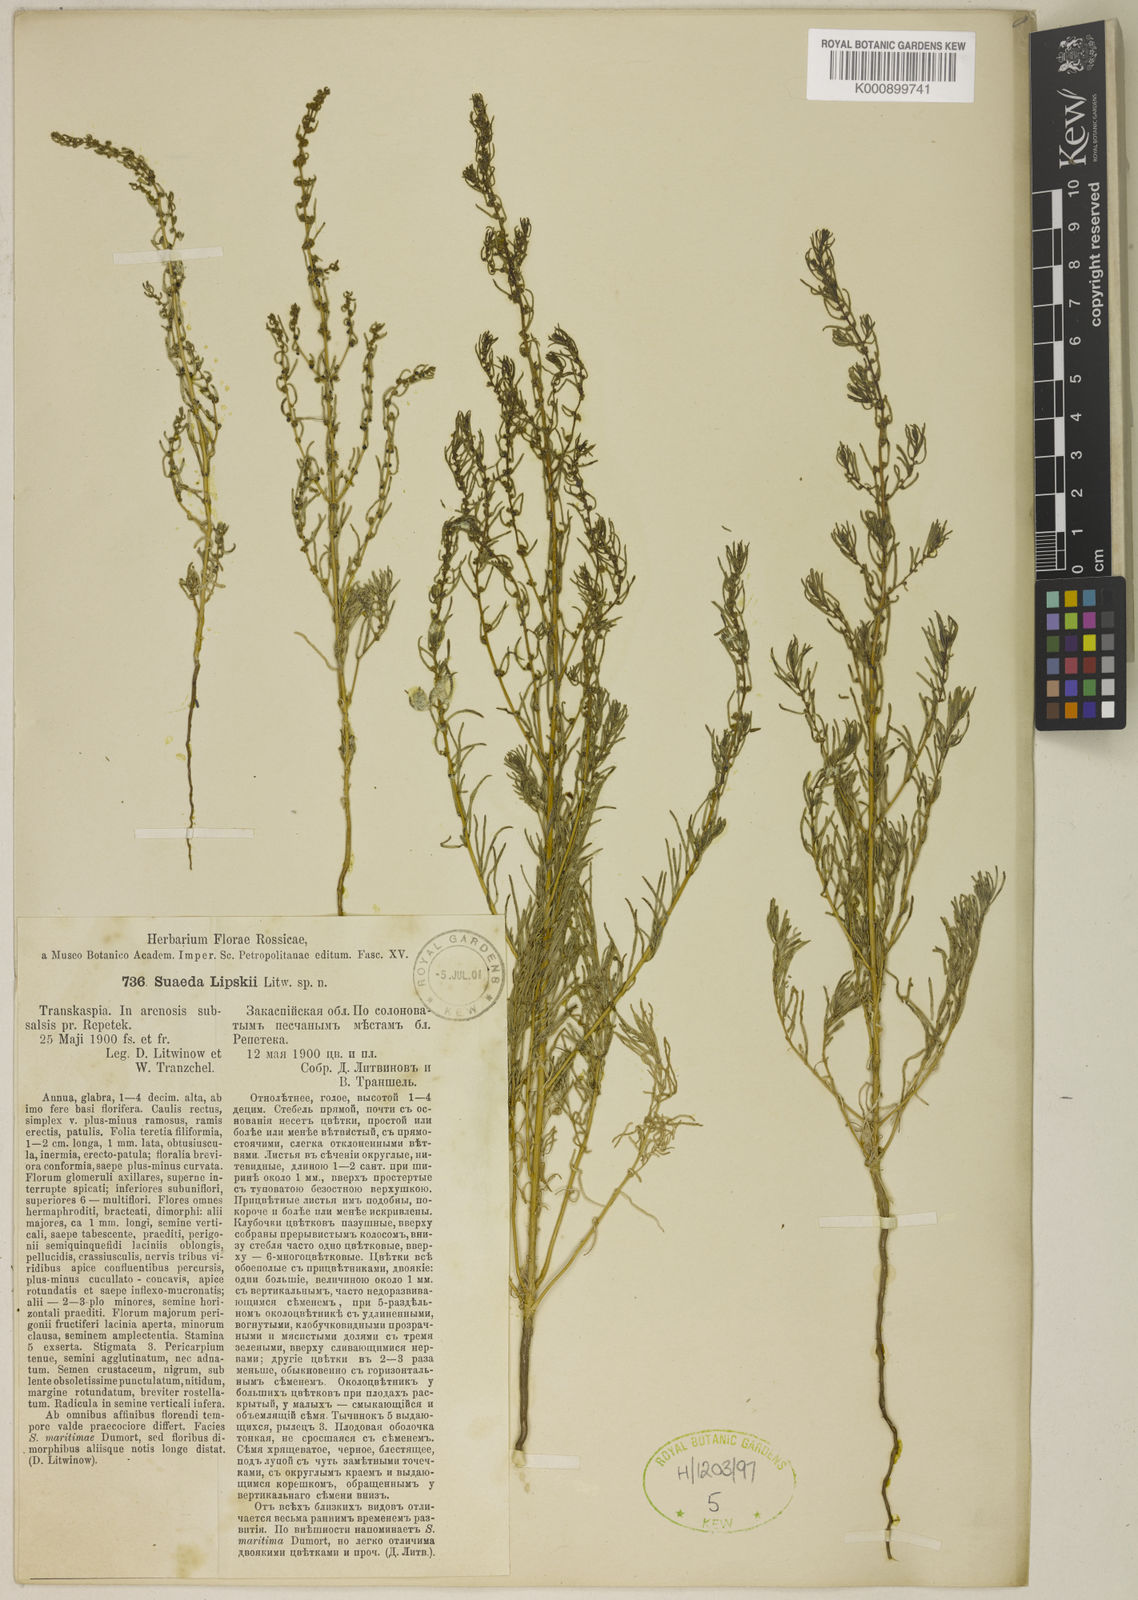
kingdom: Plantae
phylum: Tracheophyta
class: Magnoliopsida
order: Caryophyllales
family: Amaranthaceae
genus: Suaeda
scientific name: Suaeda
